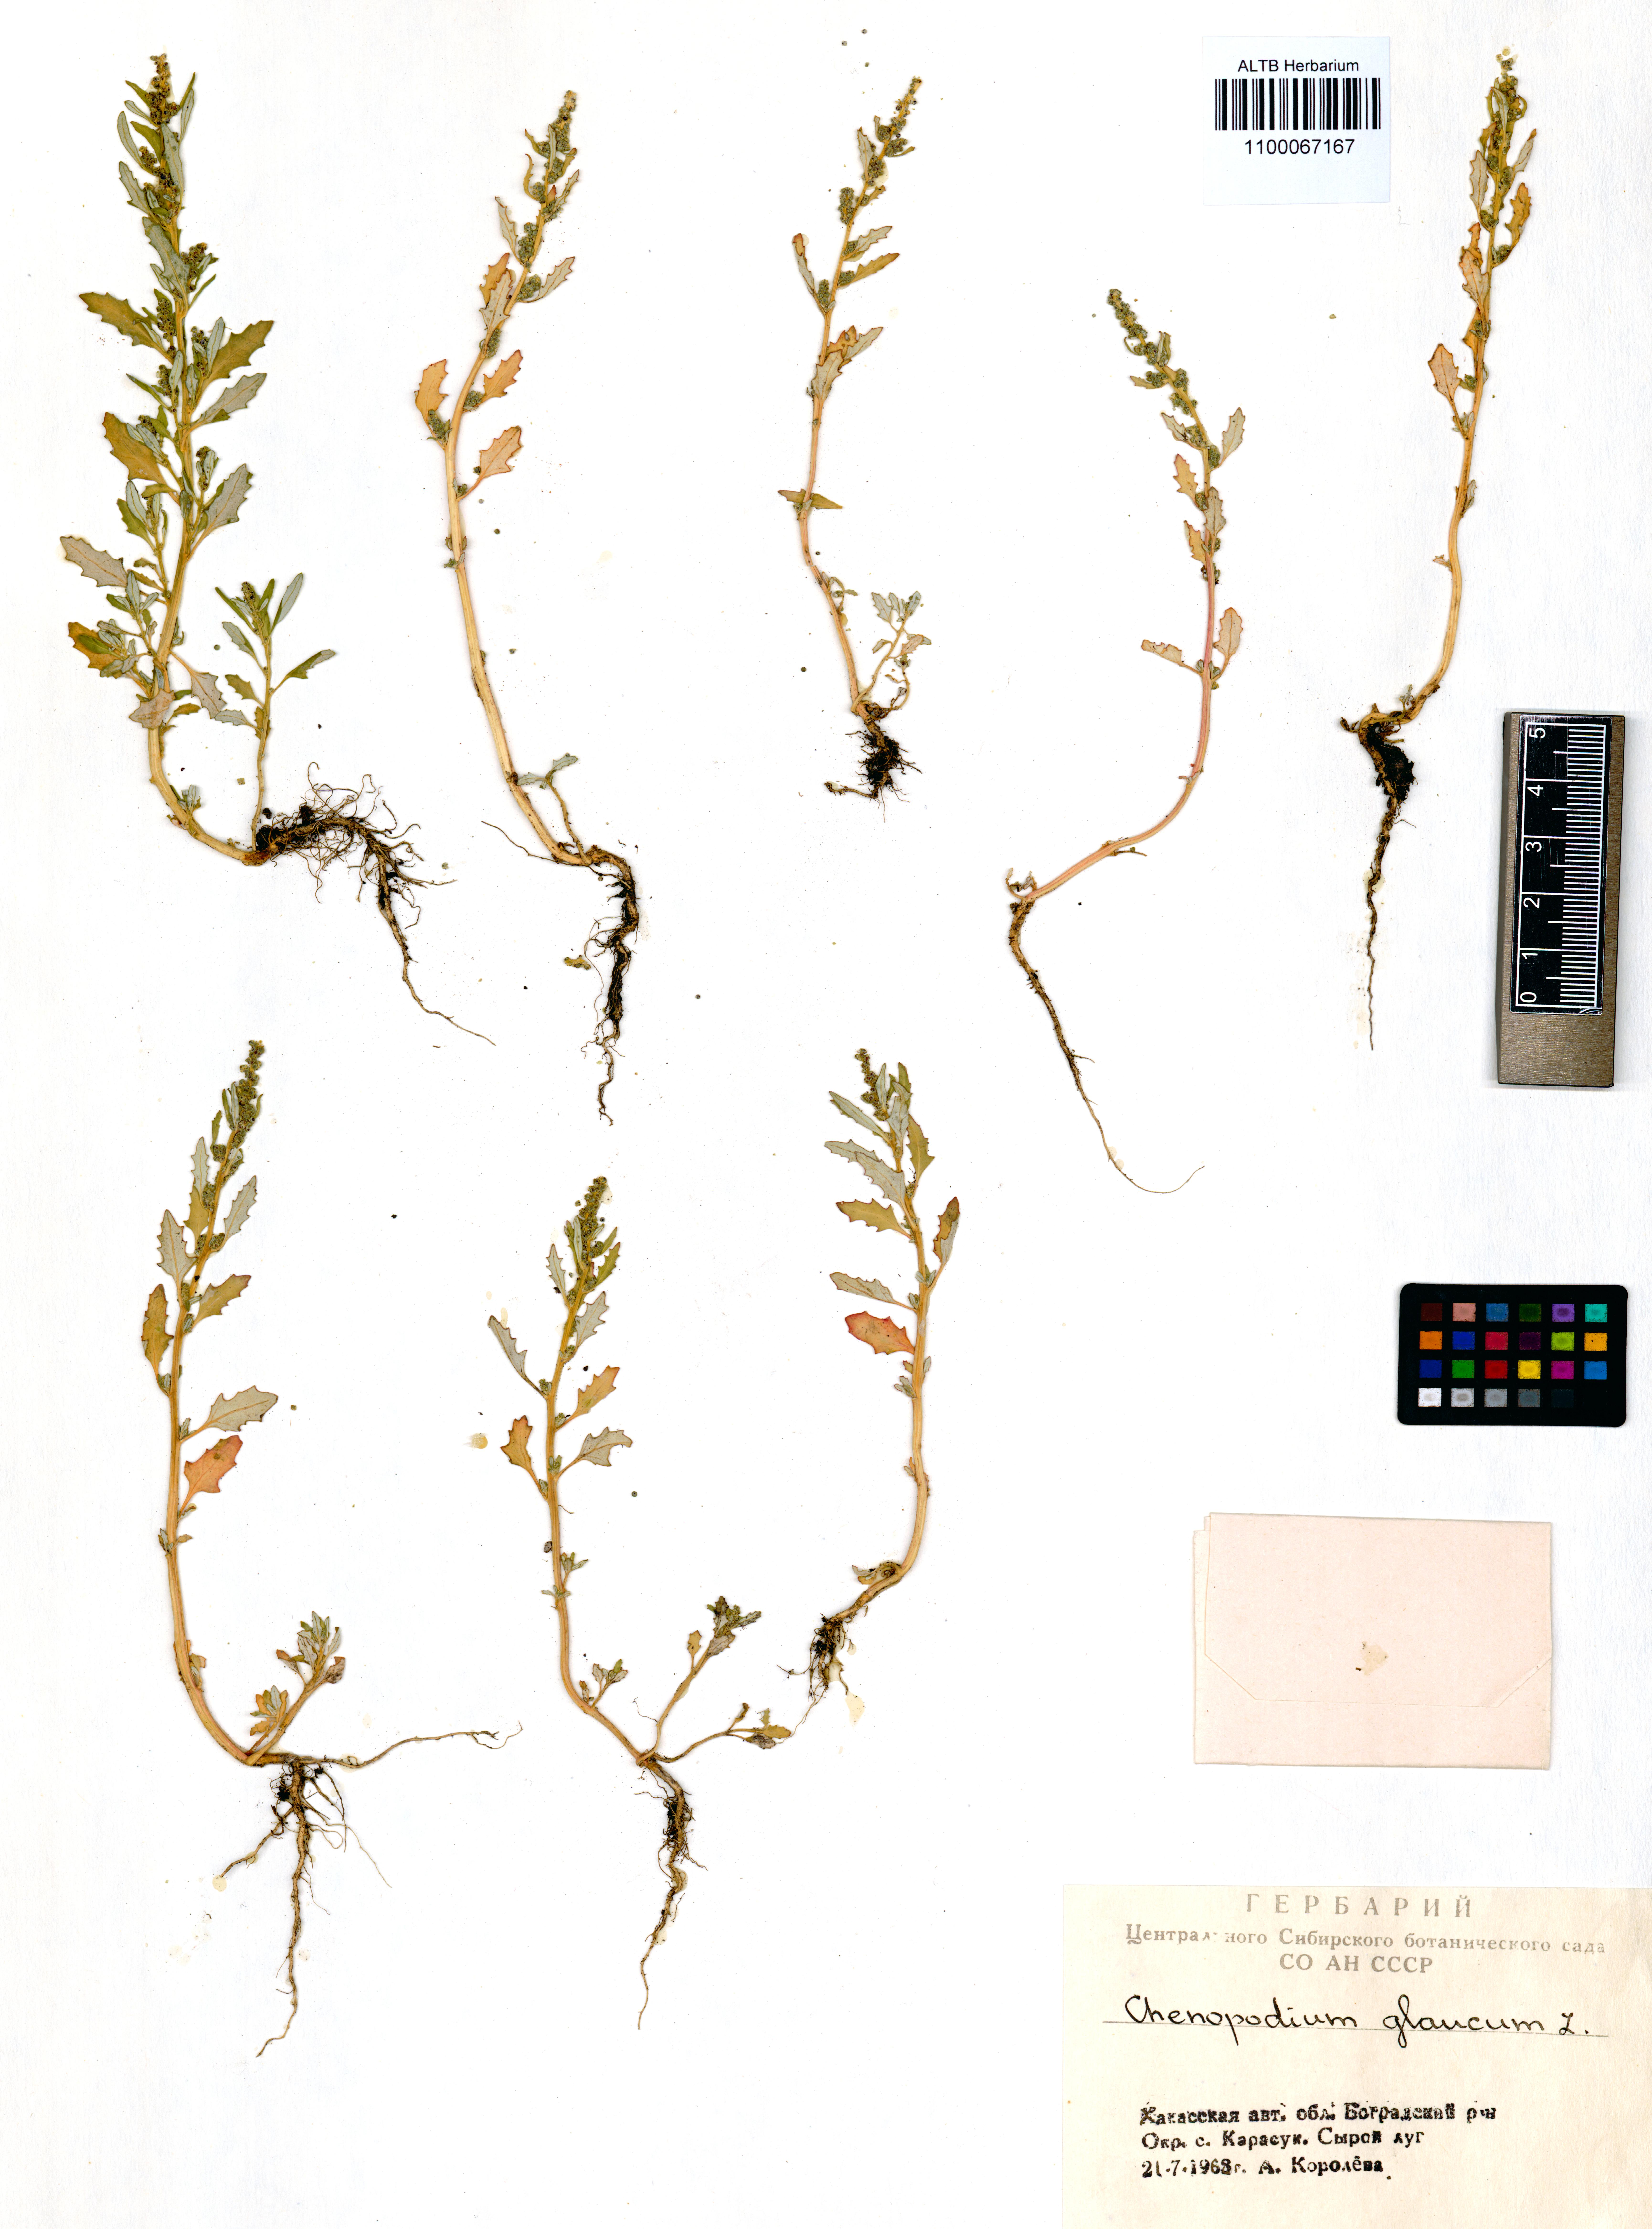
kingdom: Plantae
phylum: Tracheophyta
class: Magnoliopsida
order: Caryophyllales
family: Amaranthaceae
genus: Oxybasis
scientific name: Oxybasis glauca
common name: Glaucous goosefoot
